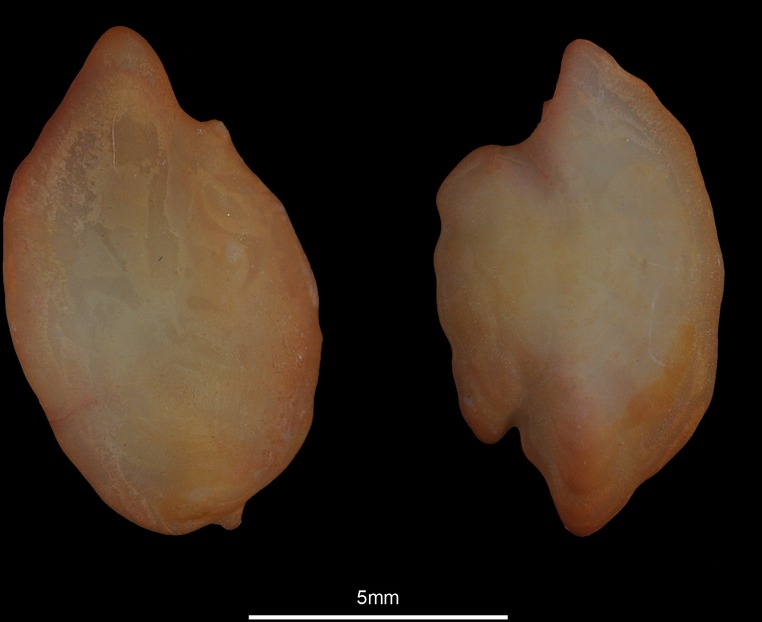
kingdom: Animalia
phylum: Chordata
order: Pleuronectiformes
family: Scophthalmidae
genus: Lepidorhombus
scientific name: Lepidorhombus boscii
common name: Megrim
